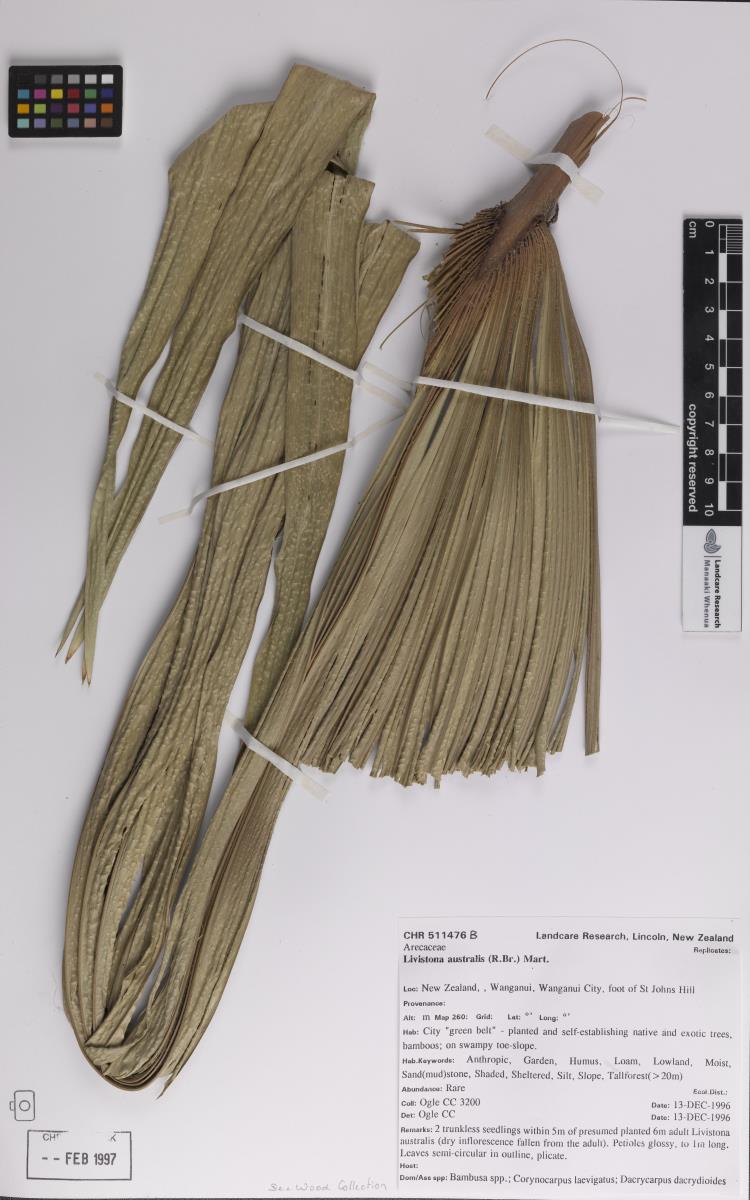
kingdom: Plantae
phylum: Tracheophyta
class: Liliopsida
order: Arecales
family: Arecaceae
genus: Livistona
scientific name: Livistona australis
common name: Cabbage fan palm
